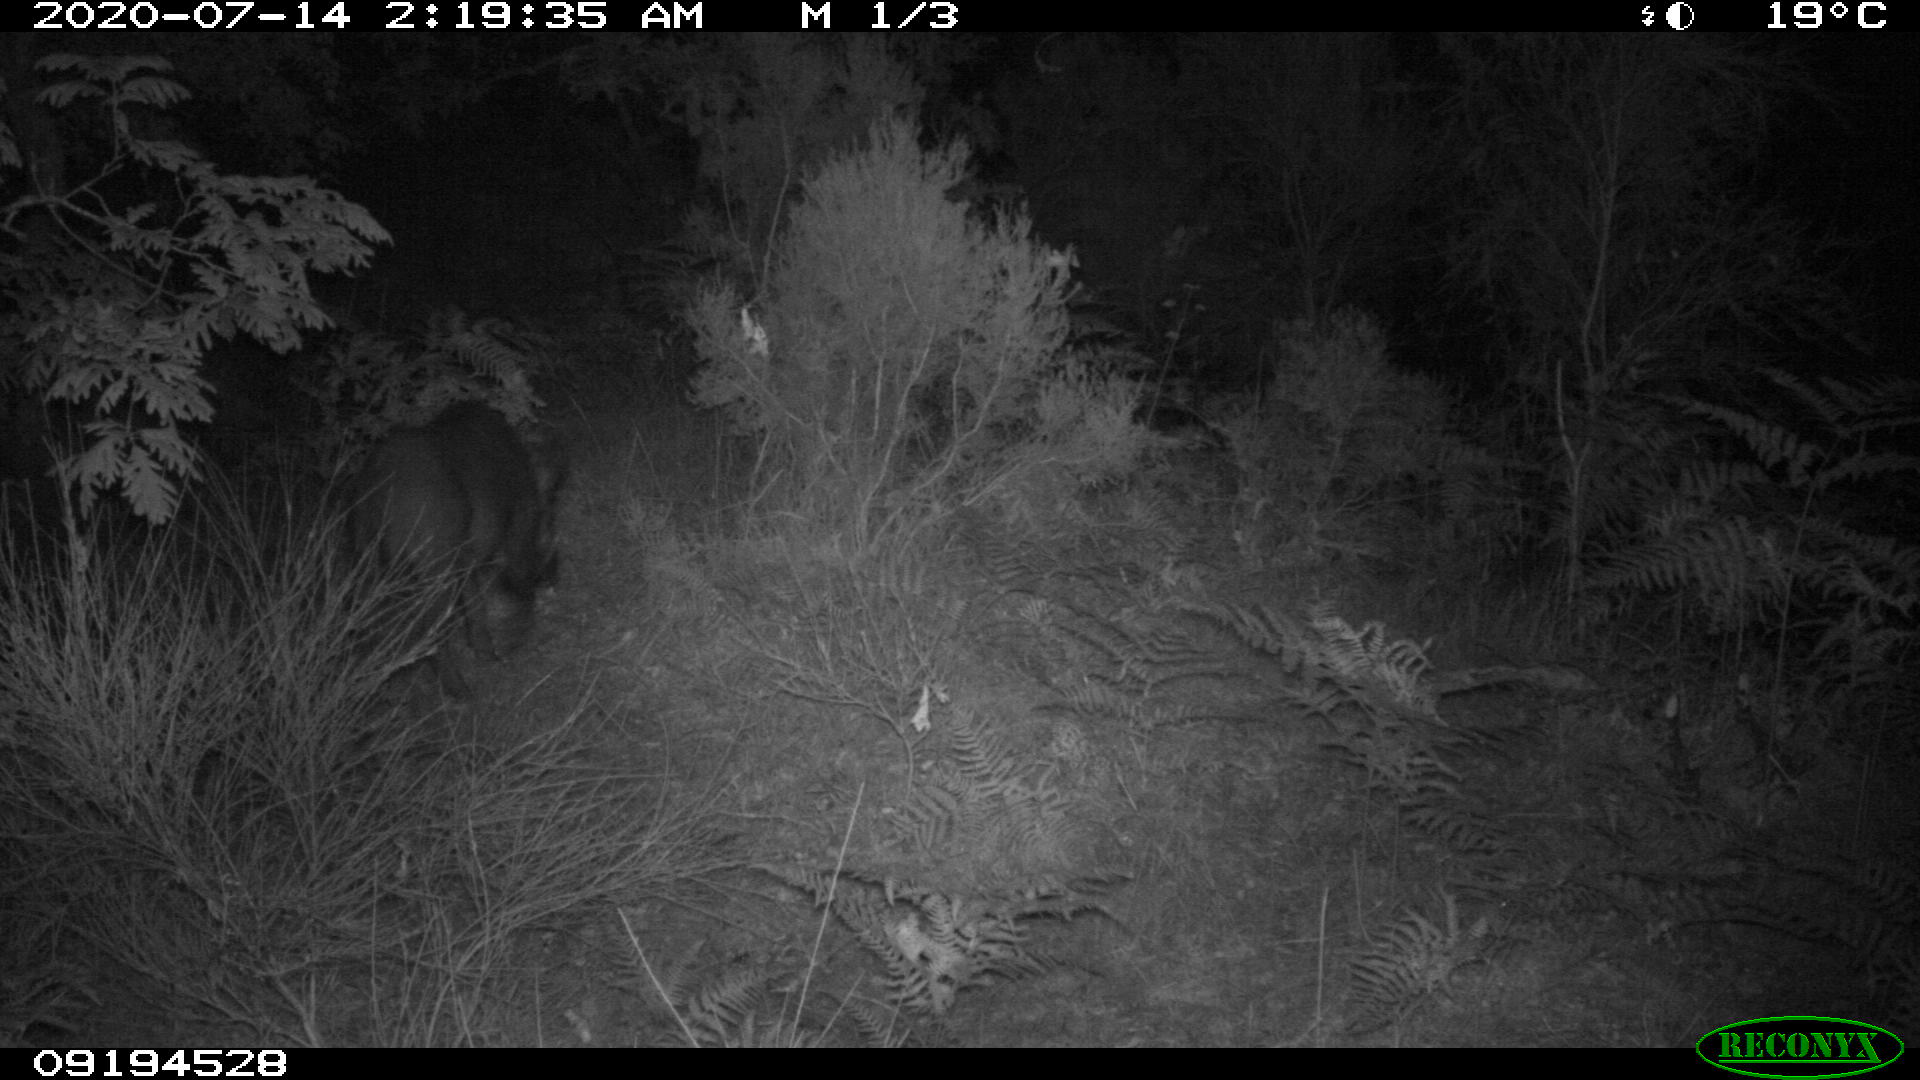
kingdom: Animalia
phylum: Chordata
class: Mammalia
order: Artiodactyla
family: Suidae
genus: Sus
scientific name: Sus scrofa
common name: Wild boar
